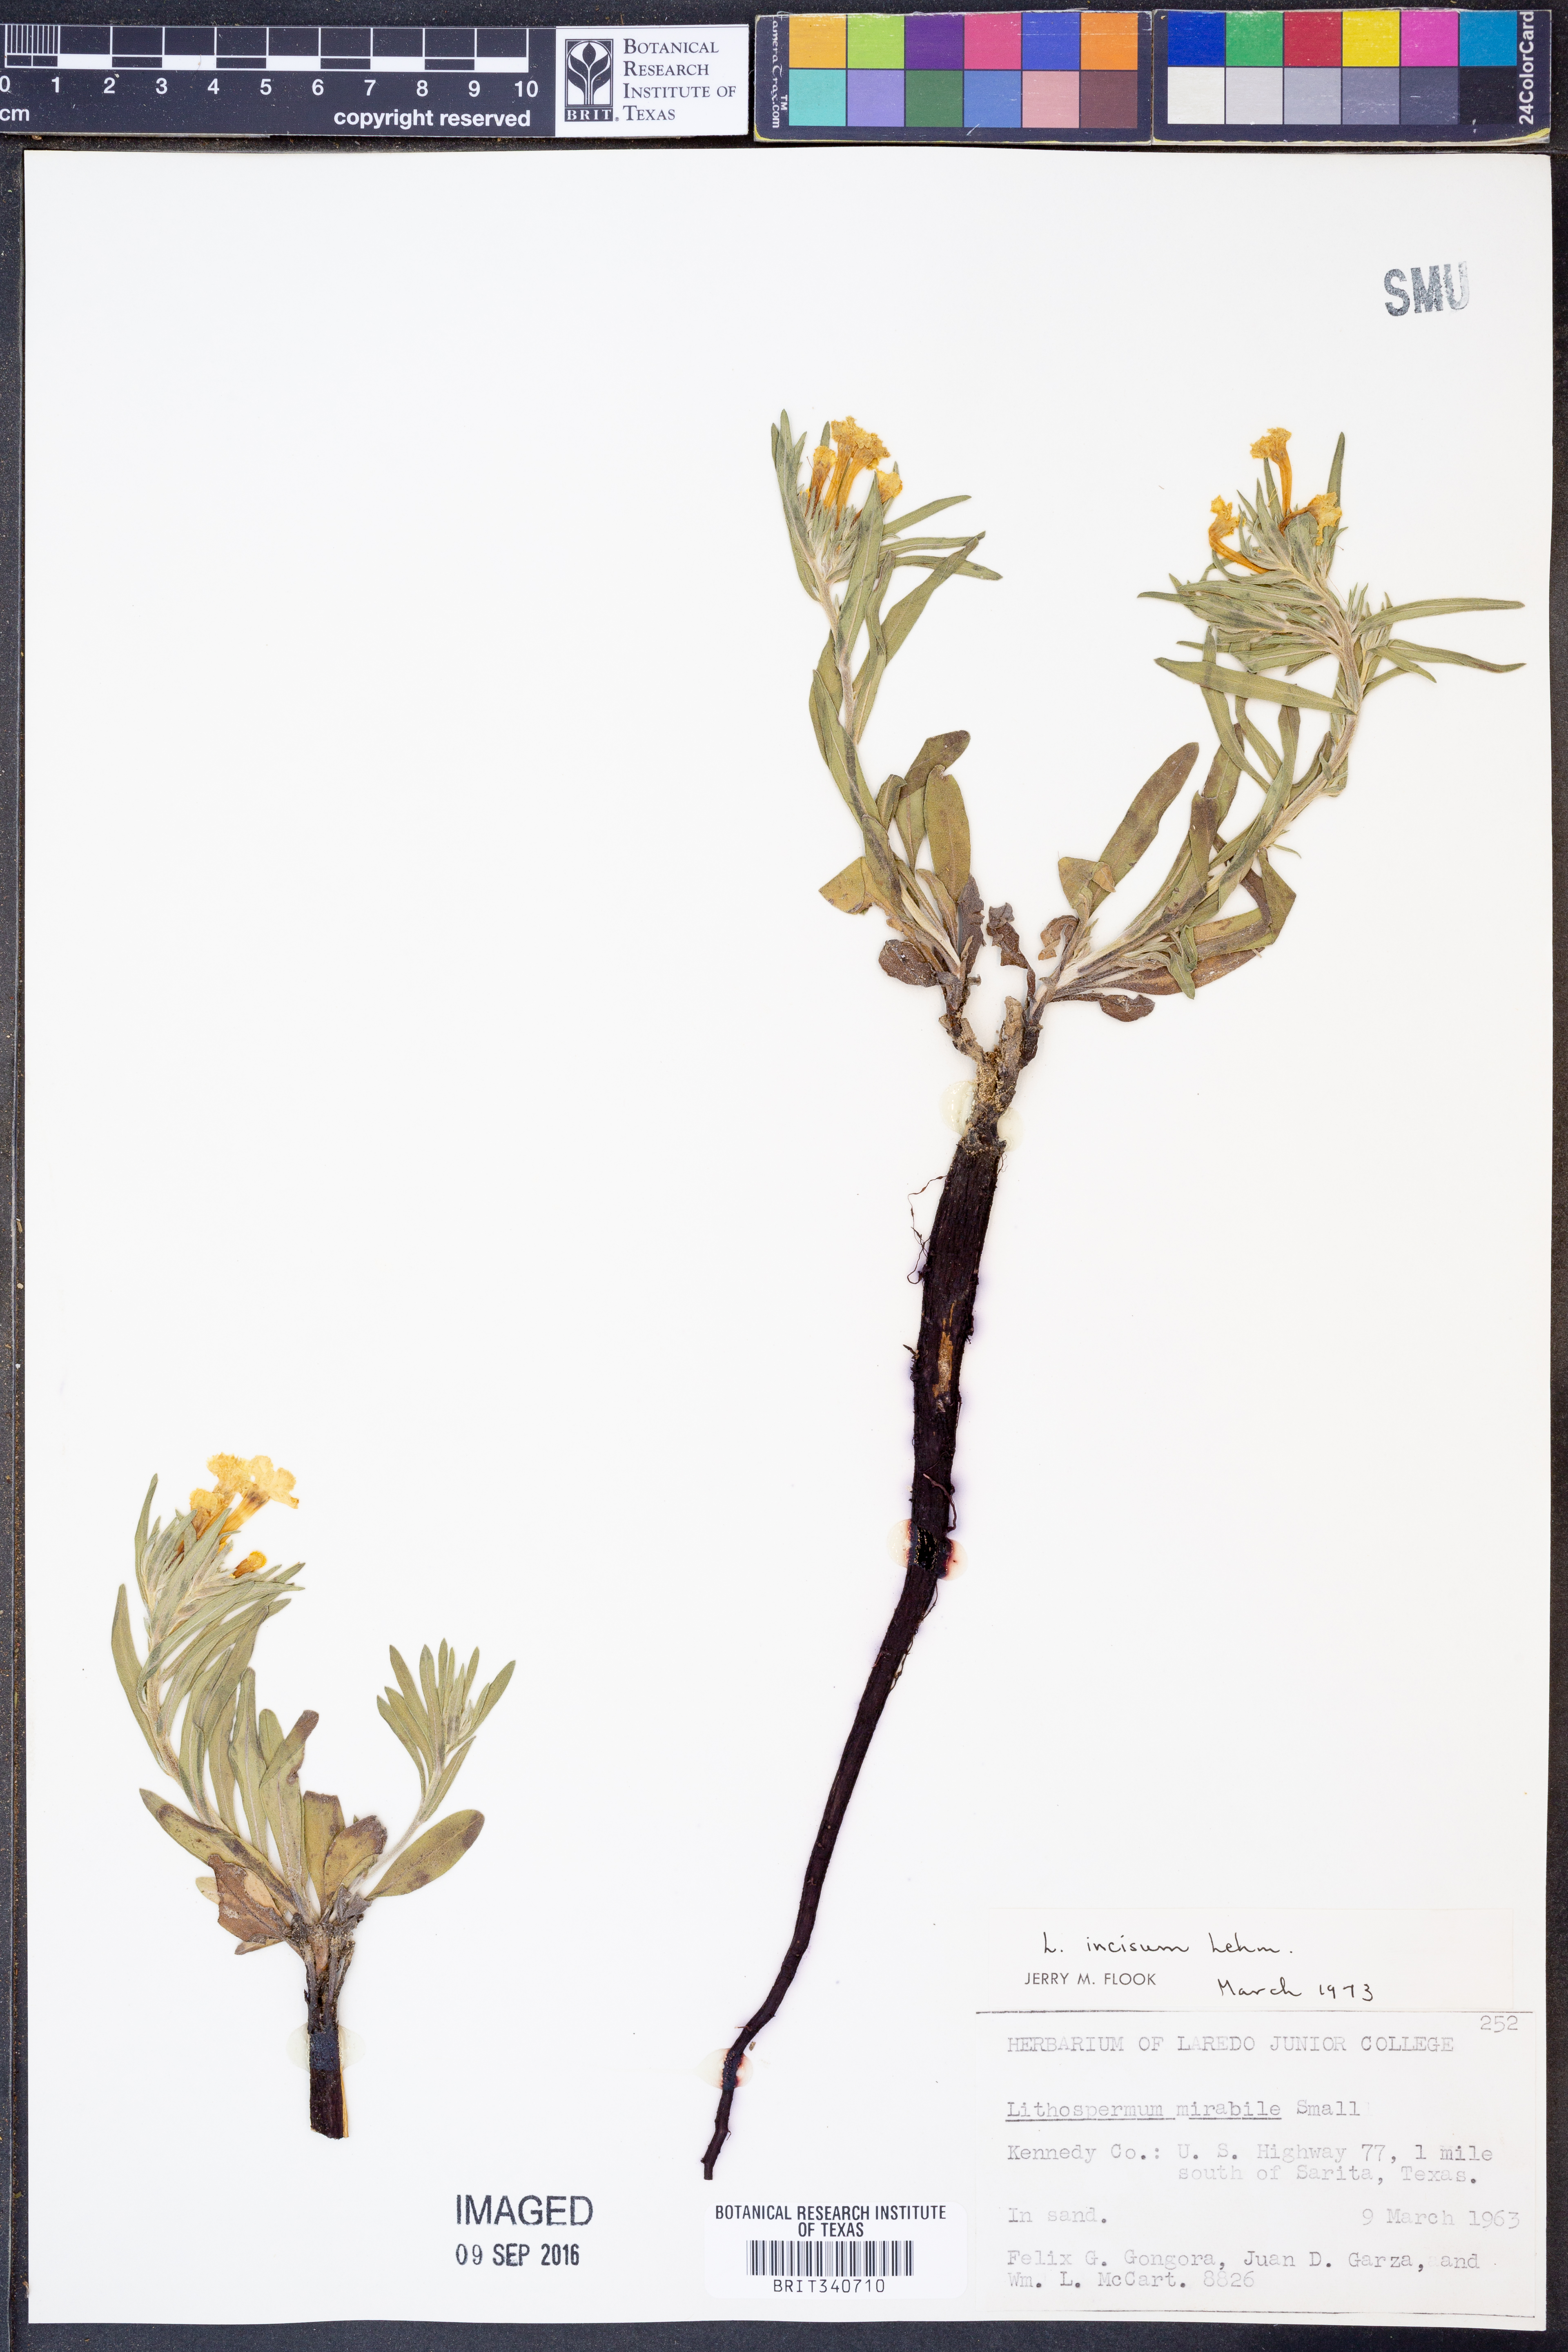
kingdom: Plantae
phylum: Tracheophyta
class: Magnoliopsida
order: Boraginales
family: Boraginaceae
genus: Lithospermum
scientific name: Lithospermum incisum
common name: Fringed gromwell
